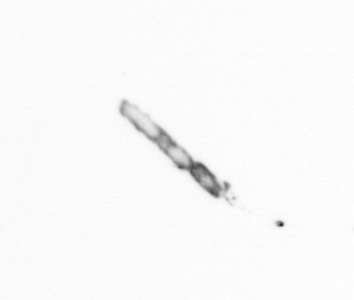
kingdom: Chromista
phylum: Ochrophyta
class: Bacillariophyceae
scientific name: Bacillariophyceae
